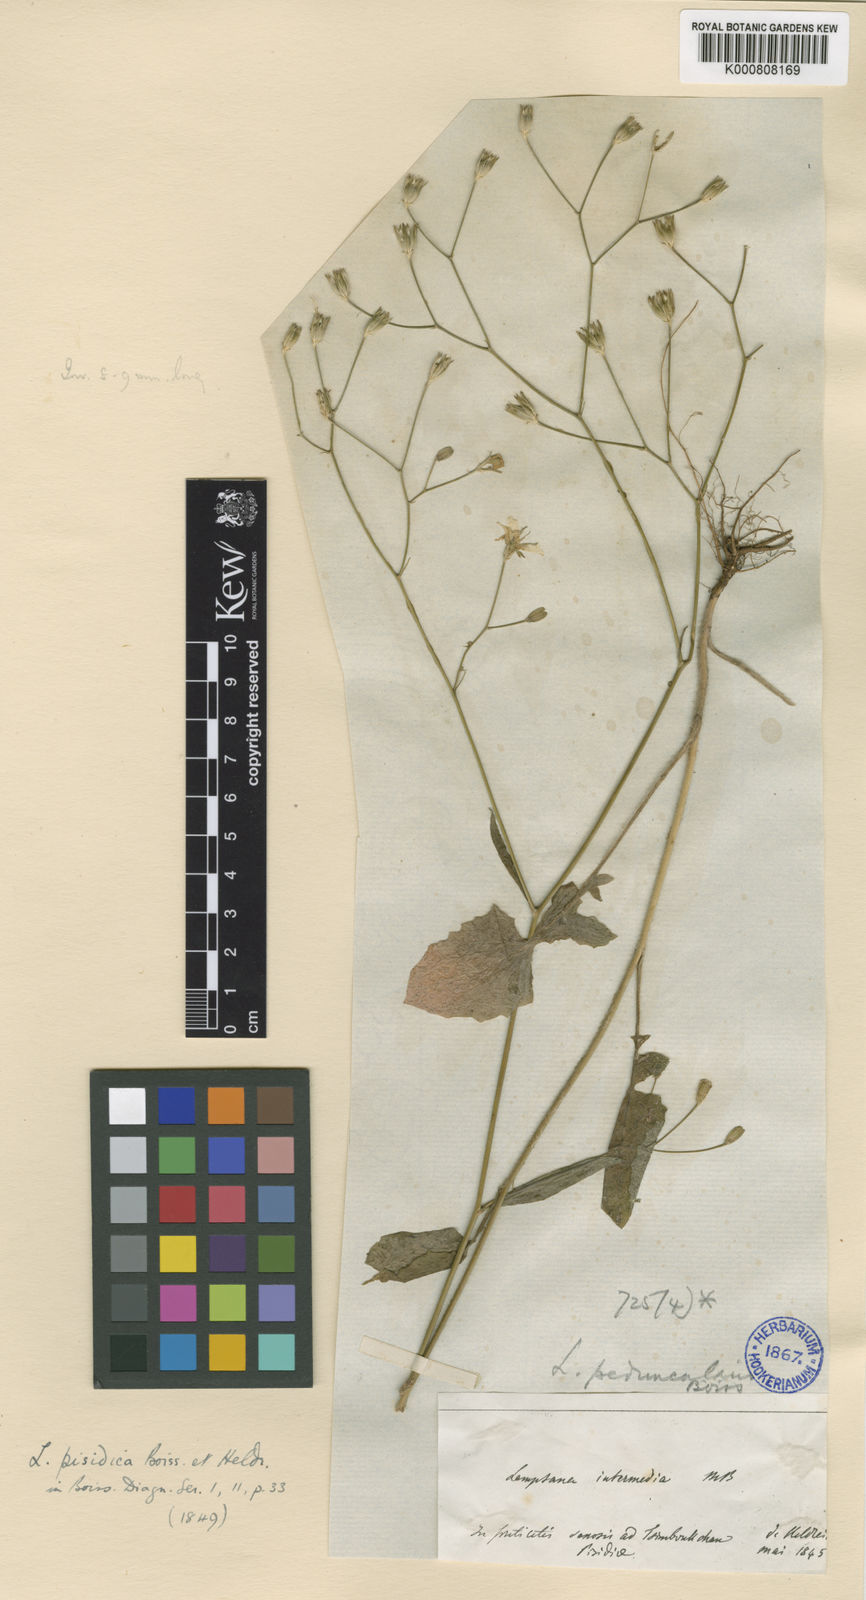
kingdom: Plantae
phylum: Tracheophyta
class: Magnoliopsida
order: Asterales
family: Asteraceae
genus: Lapsana
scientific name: Lapsana communis
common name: Nipplewort
